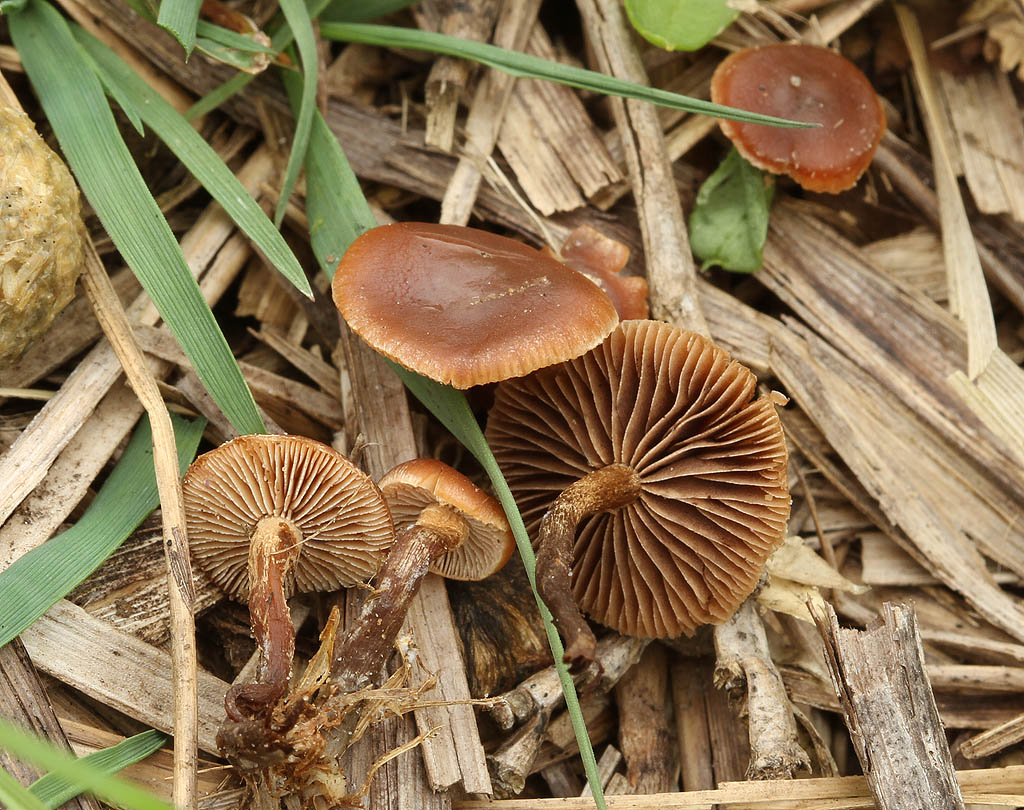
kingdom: Fungi
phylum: Basidiomycota
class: Agaricomycetes
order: Agaricales
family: Strophariaceae
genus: Deconica
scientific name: Deconica crobula
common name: træflis-stråhat
